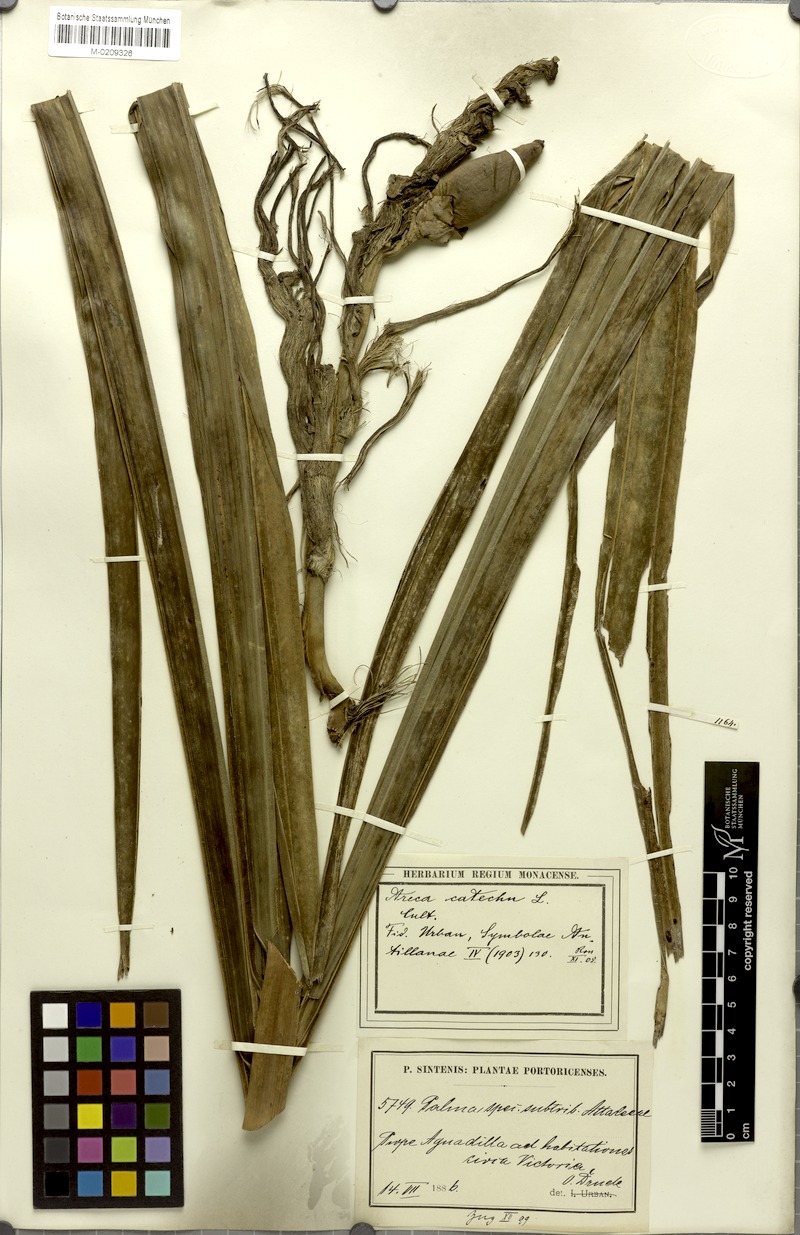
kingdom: Plantae
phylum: Tracheophyta
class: Liliopsida
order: Arecales
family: Arecaceae
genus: Areca
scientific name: Areca catechu
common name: Indian-nut
